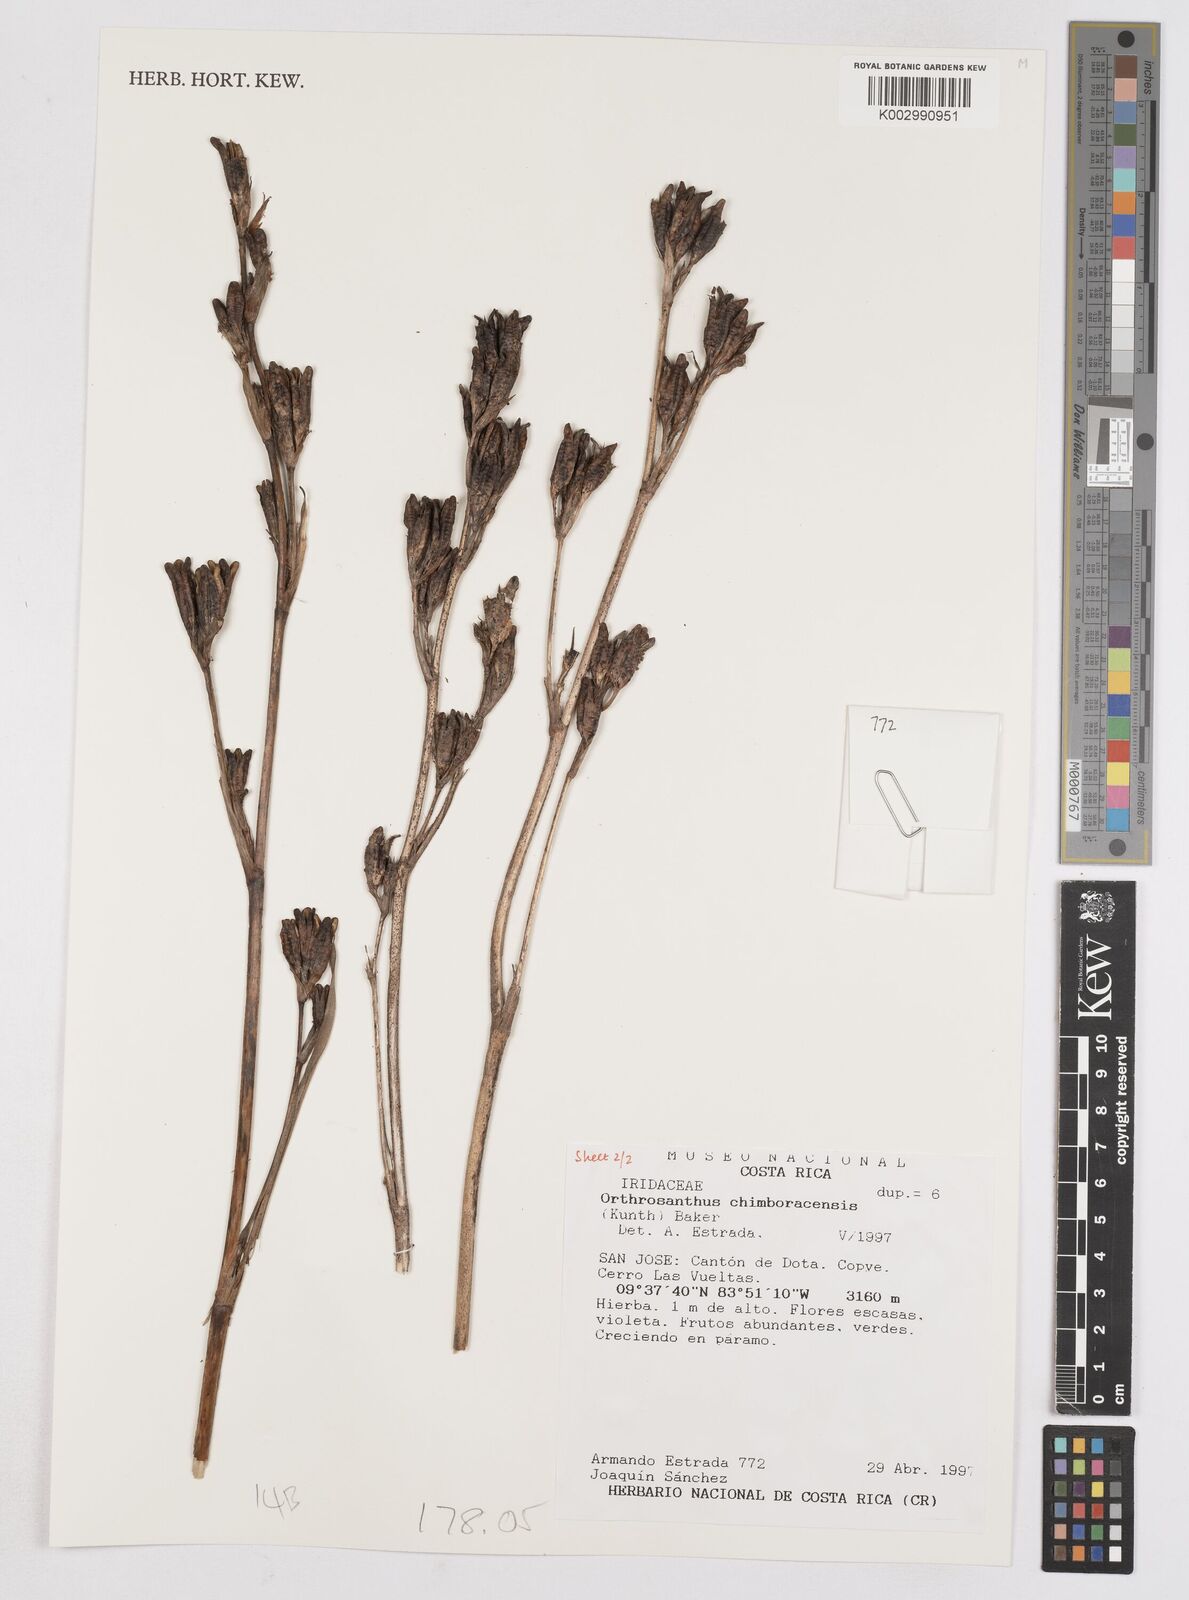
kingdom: Plantae
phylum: Tracheophyta
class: Liliopsida
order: Asparagales
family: Iridaceae
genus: Orthrosanthus
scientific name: Orthrosanthus chimboracensis
